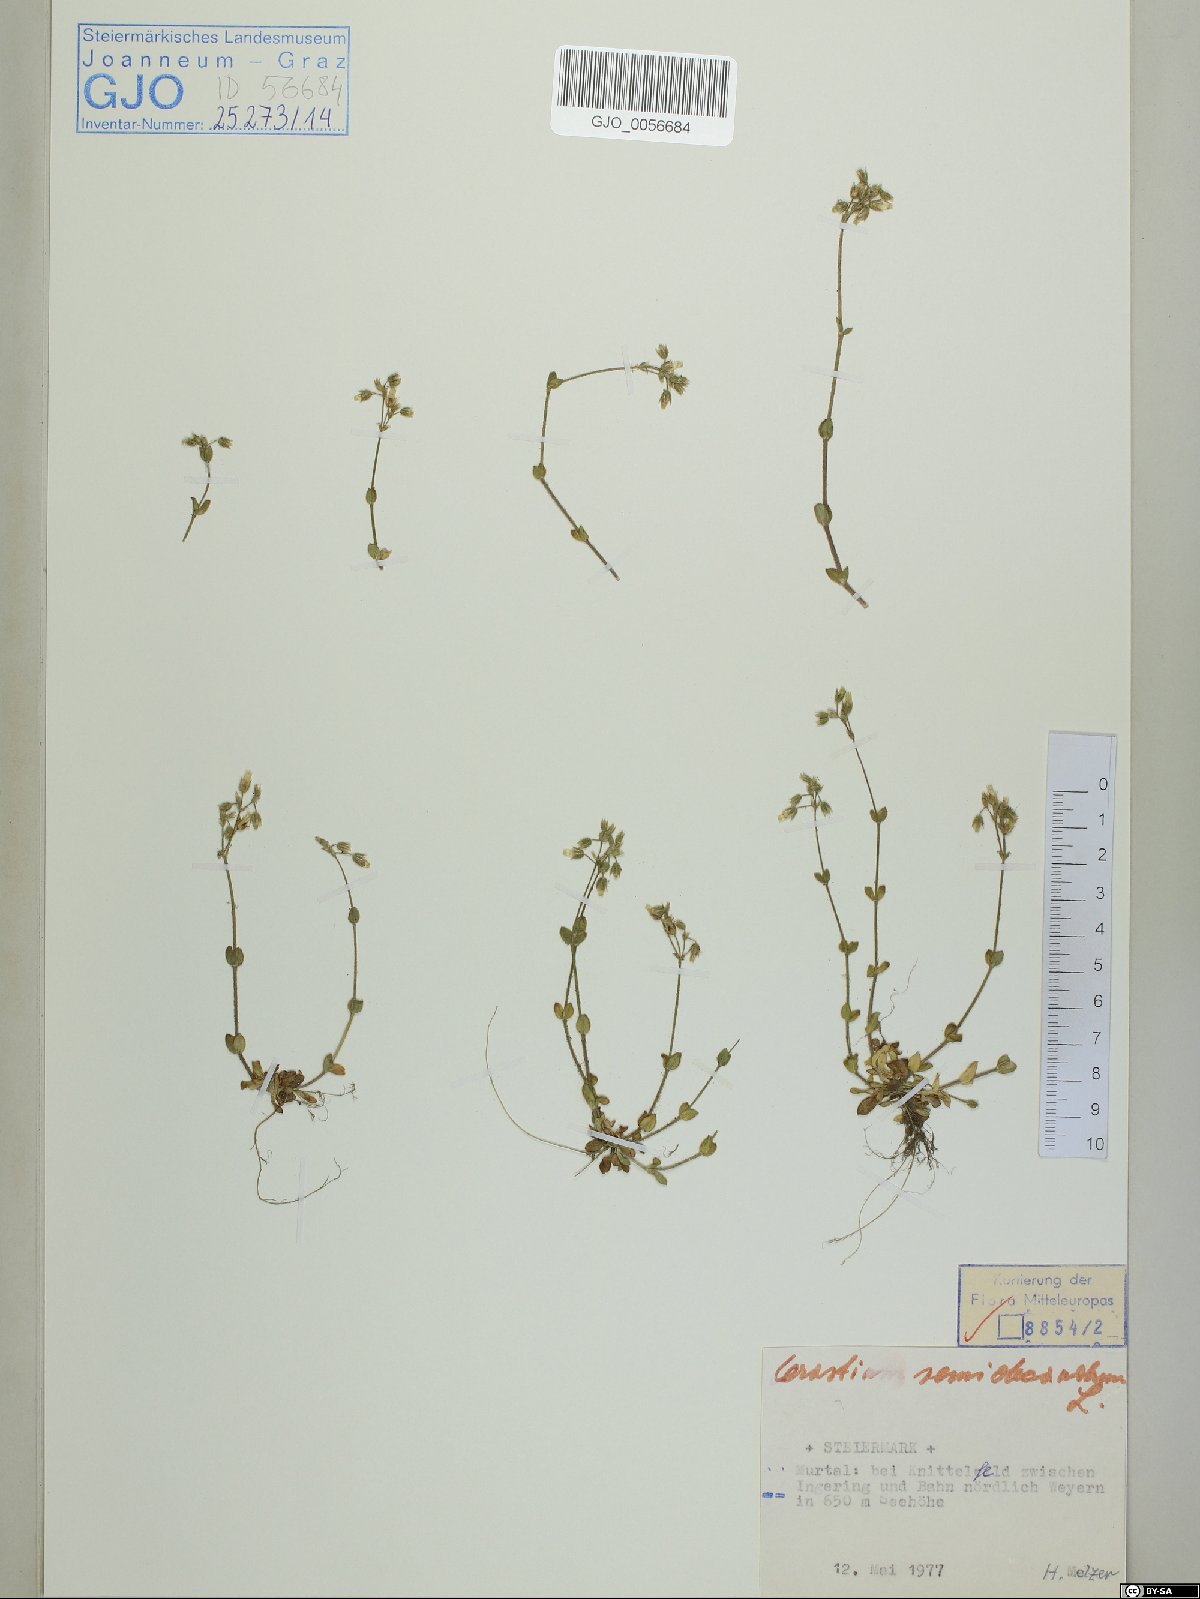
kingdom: Plantae
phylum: Tracheophyta
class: Magnoliopsida
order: Caryophyllales
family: Caryophyllaceae
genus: Cerastium
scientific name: Cerastium semidecandrum
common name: Little mouse-ear
